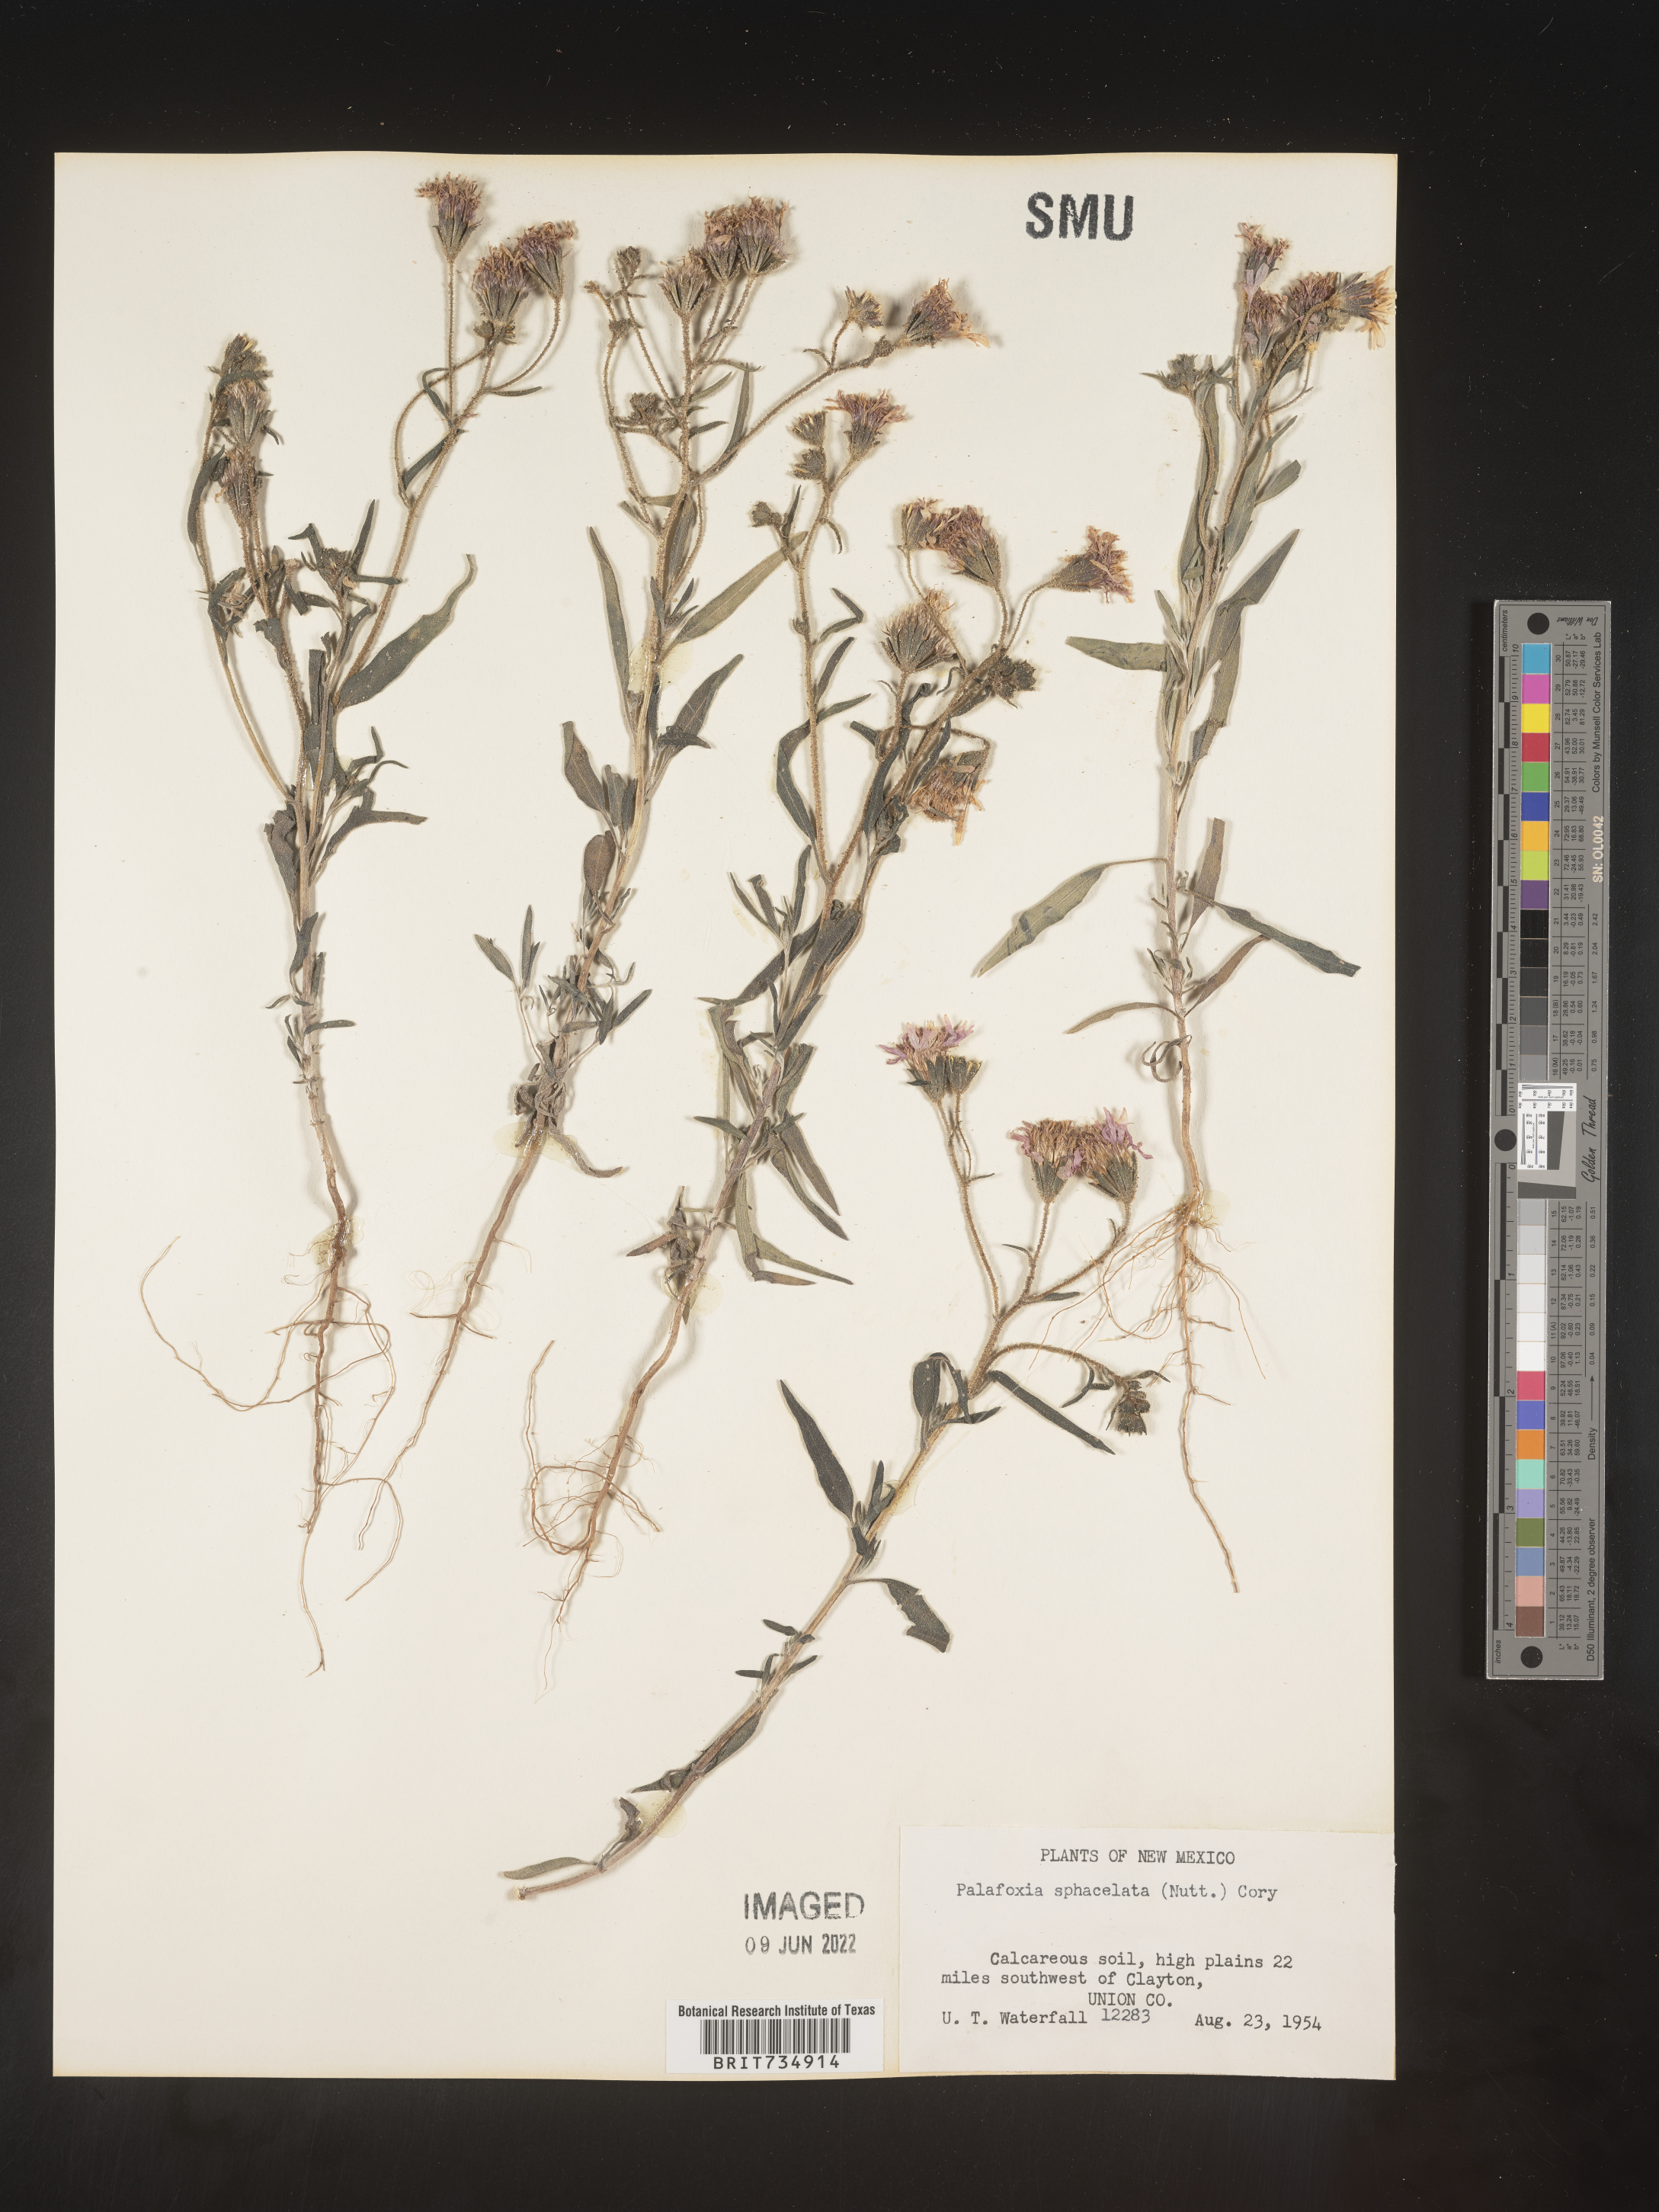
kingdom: Plantae
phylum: Tracheophyta
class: Magnoliopsida
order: Asterales
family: Asteraceae
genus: Palafoxia
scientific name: Palafoxia sphacelata
